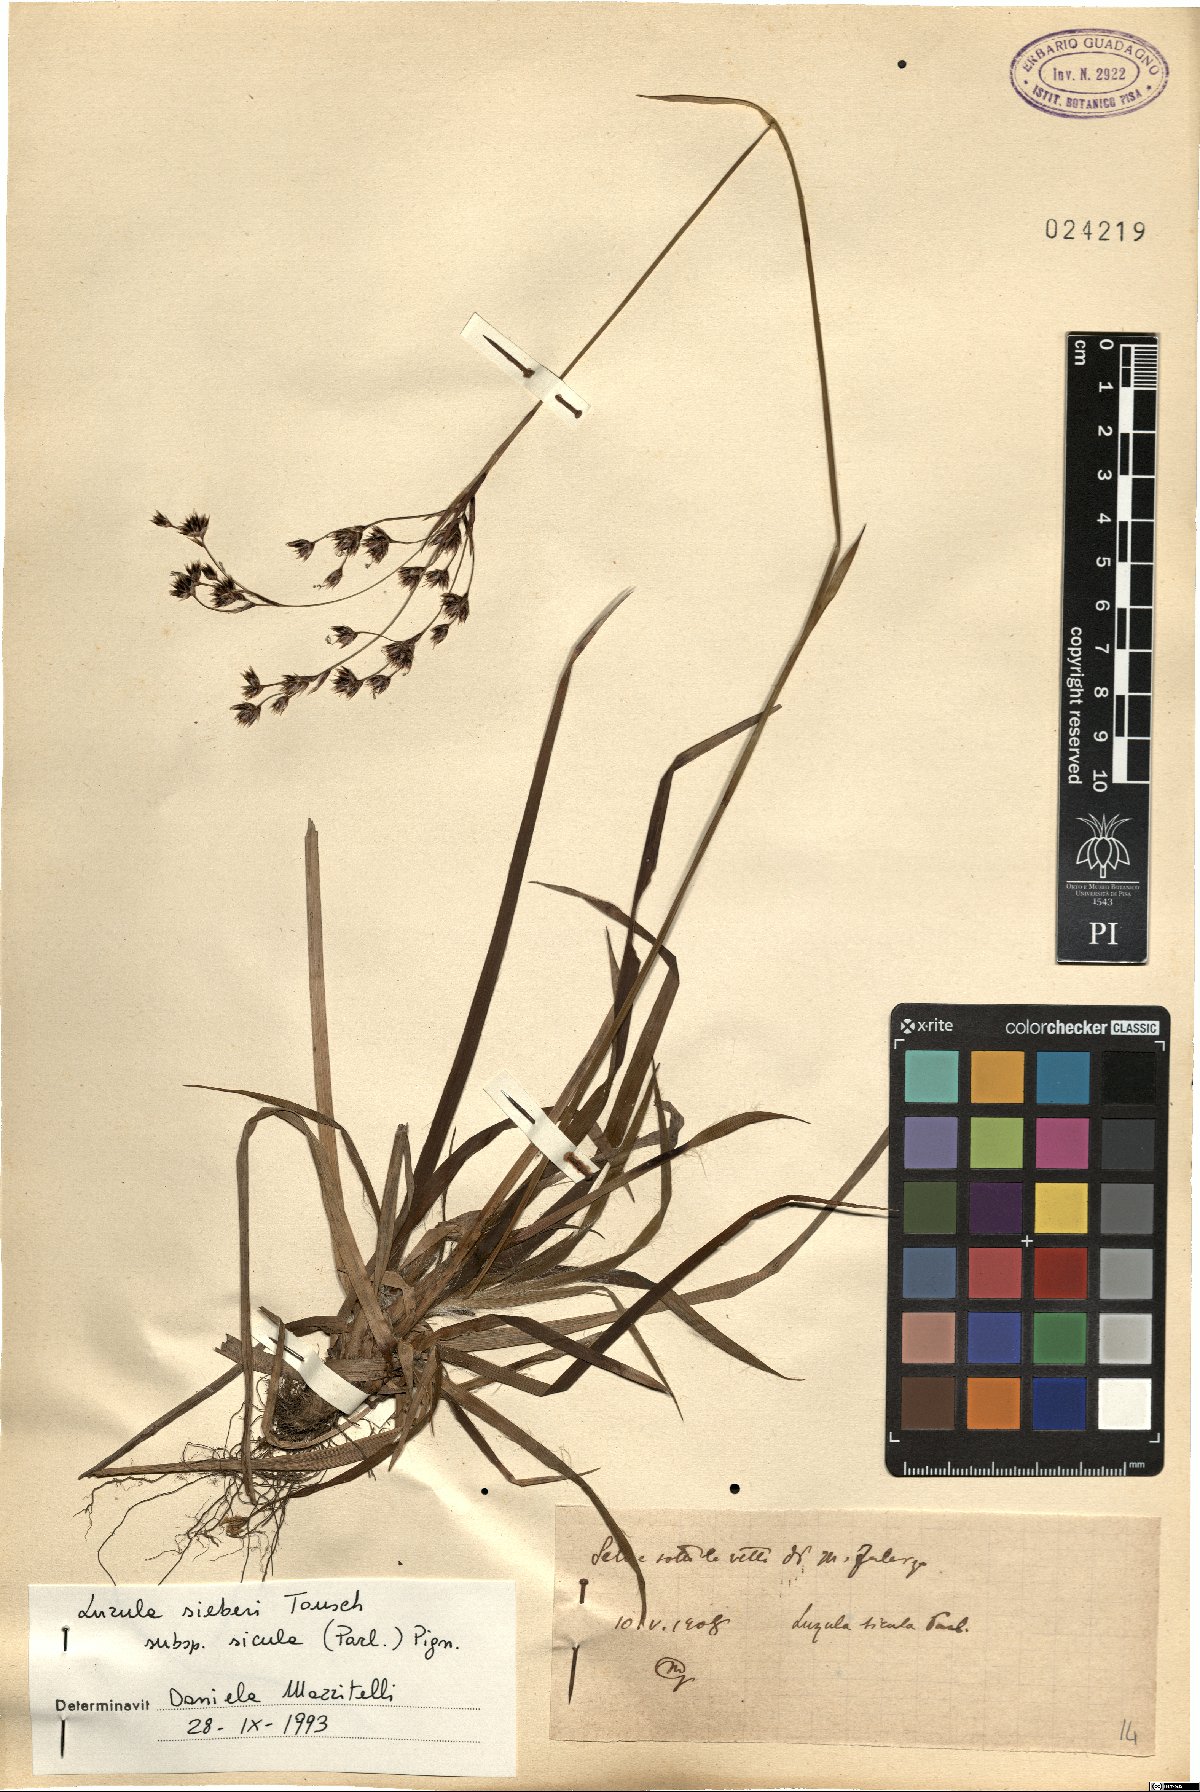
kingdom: Plantae
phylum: Tracheophyta
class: Liliopsida
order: Poales
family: Juncaceae
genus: Luzula
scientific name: Luzula sylvatica
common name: Great wood-rush
